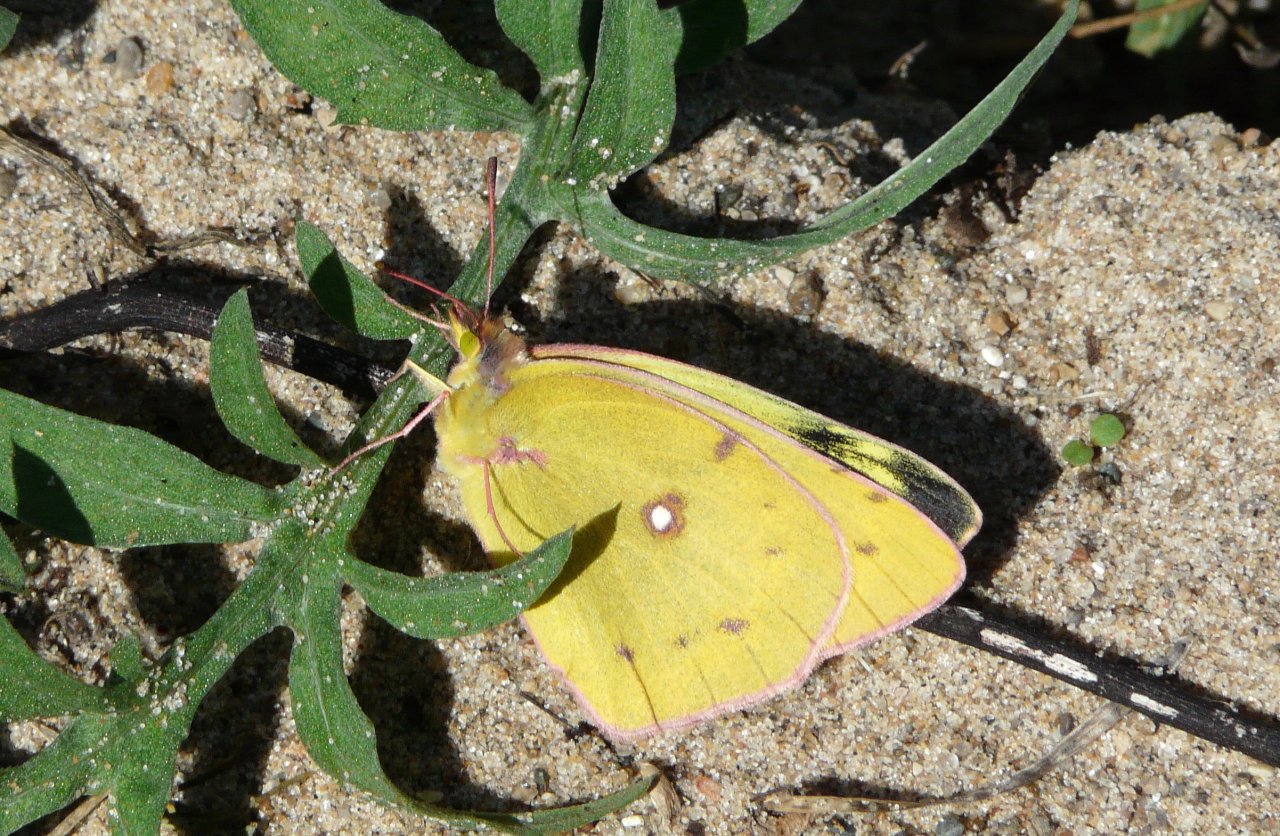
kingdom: Animalia
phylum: Arthropoda
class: Insecta
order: Lepidoptera
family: Pieridae
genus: Colias
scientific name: Colias eurytheme
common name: Orange Sulphur
